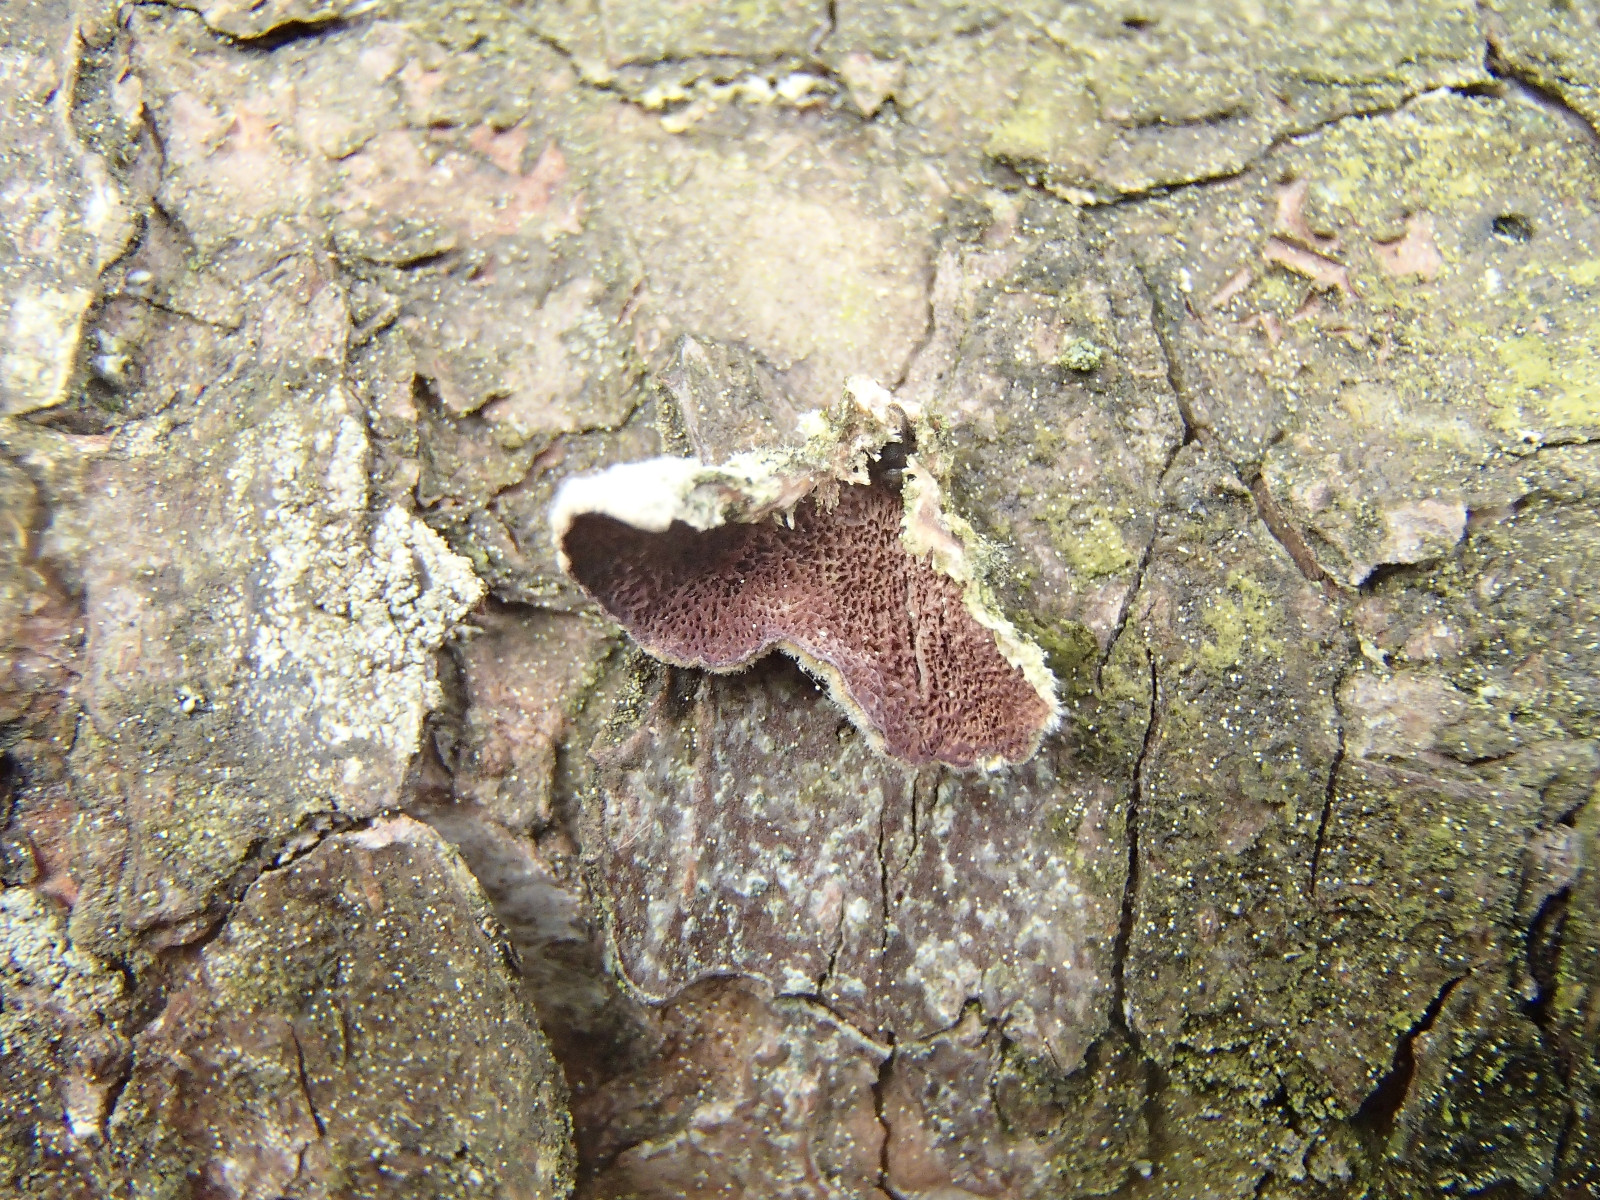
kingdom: Fungi
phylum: Basidiomycota
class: Agaricomycetes
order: Hymenochaetales
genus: Trichaptum
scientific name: Trichaptum abietinum
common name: almindelig violporesvamp
